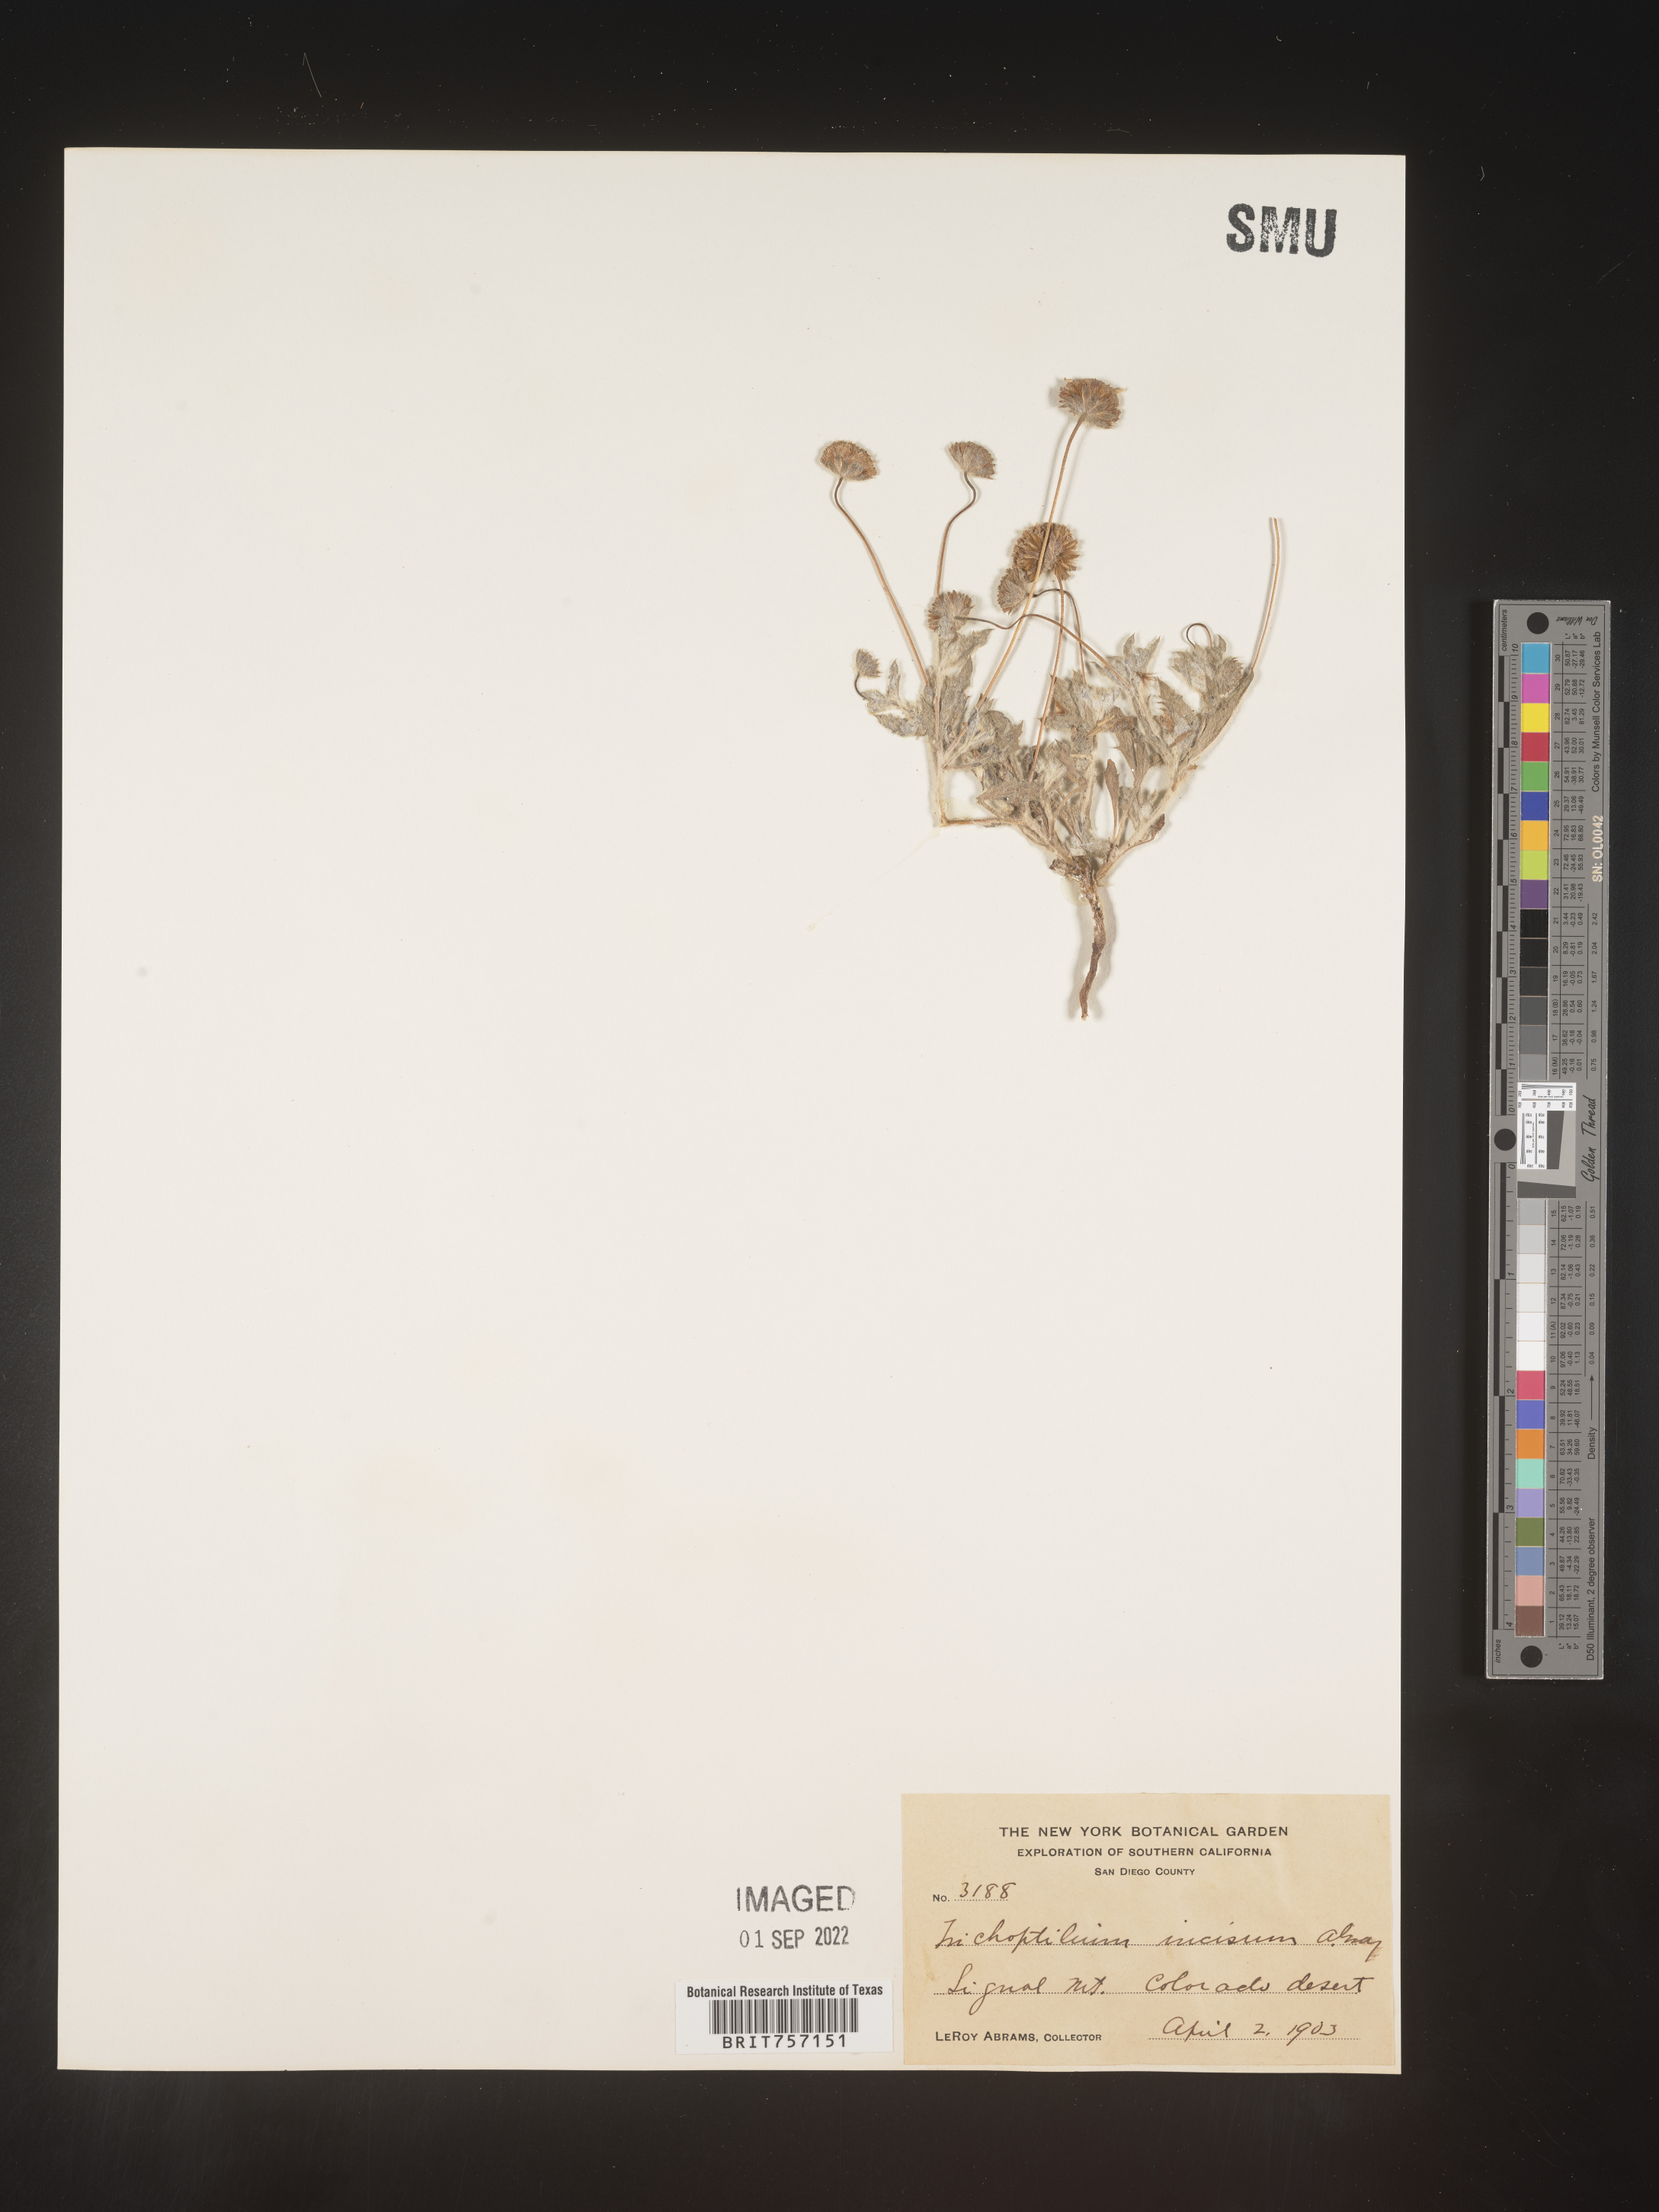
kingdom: Plantae
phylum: Tracheophyta
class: Magnoliopsida
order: Asterales
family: Asteraceae
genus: Trichoptilium
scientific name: Trichoptilium
